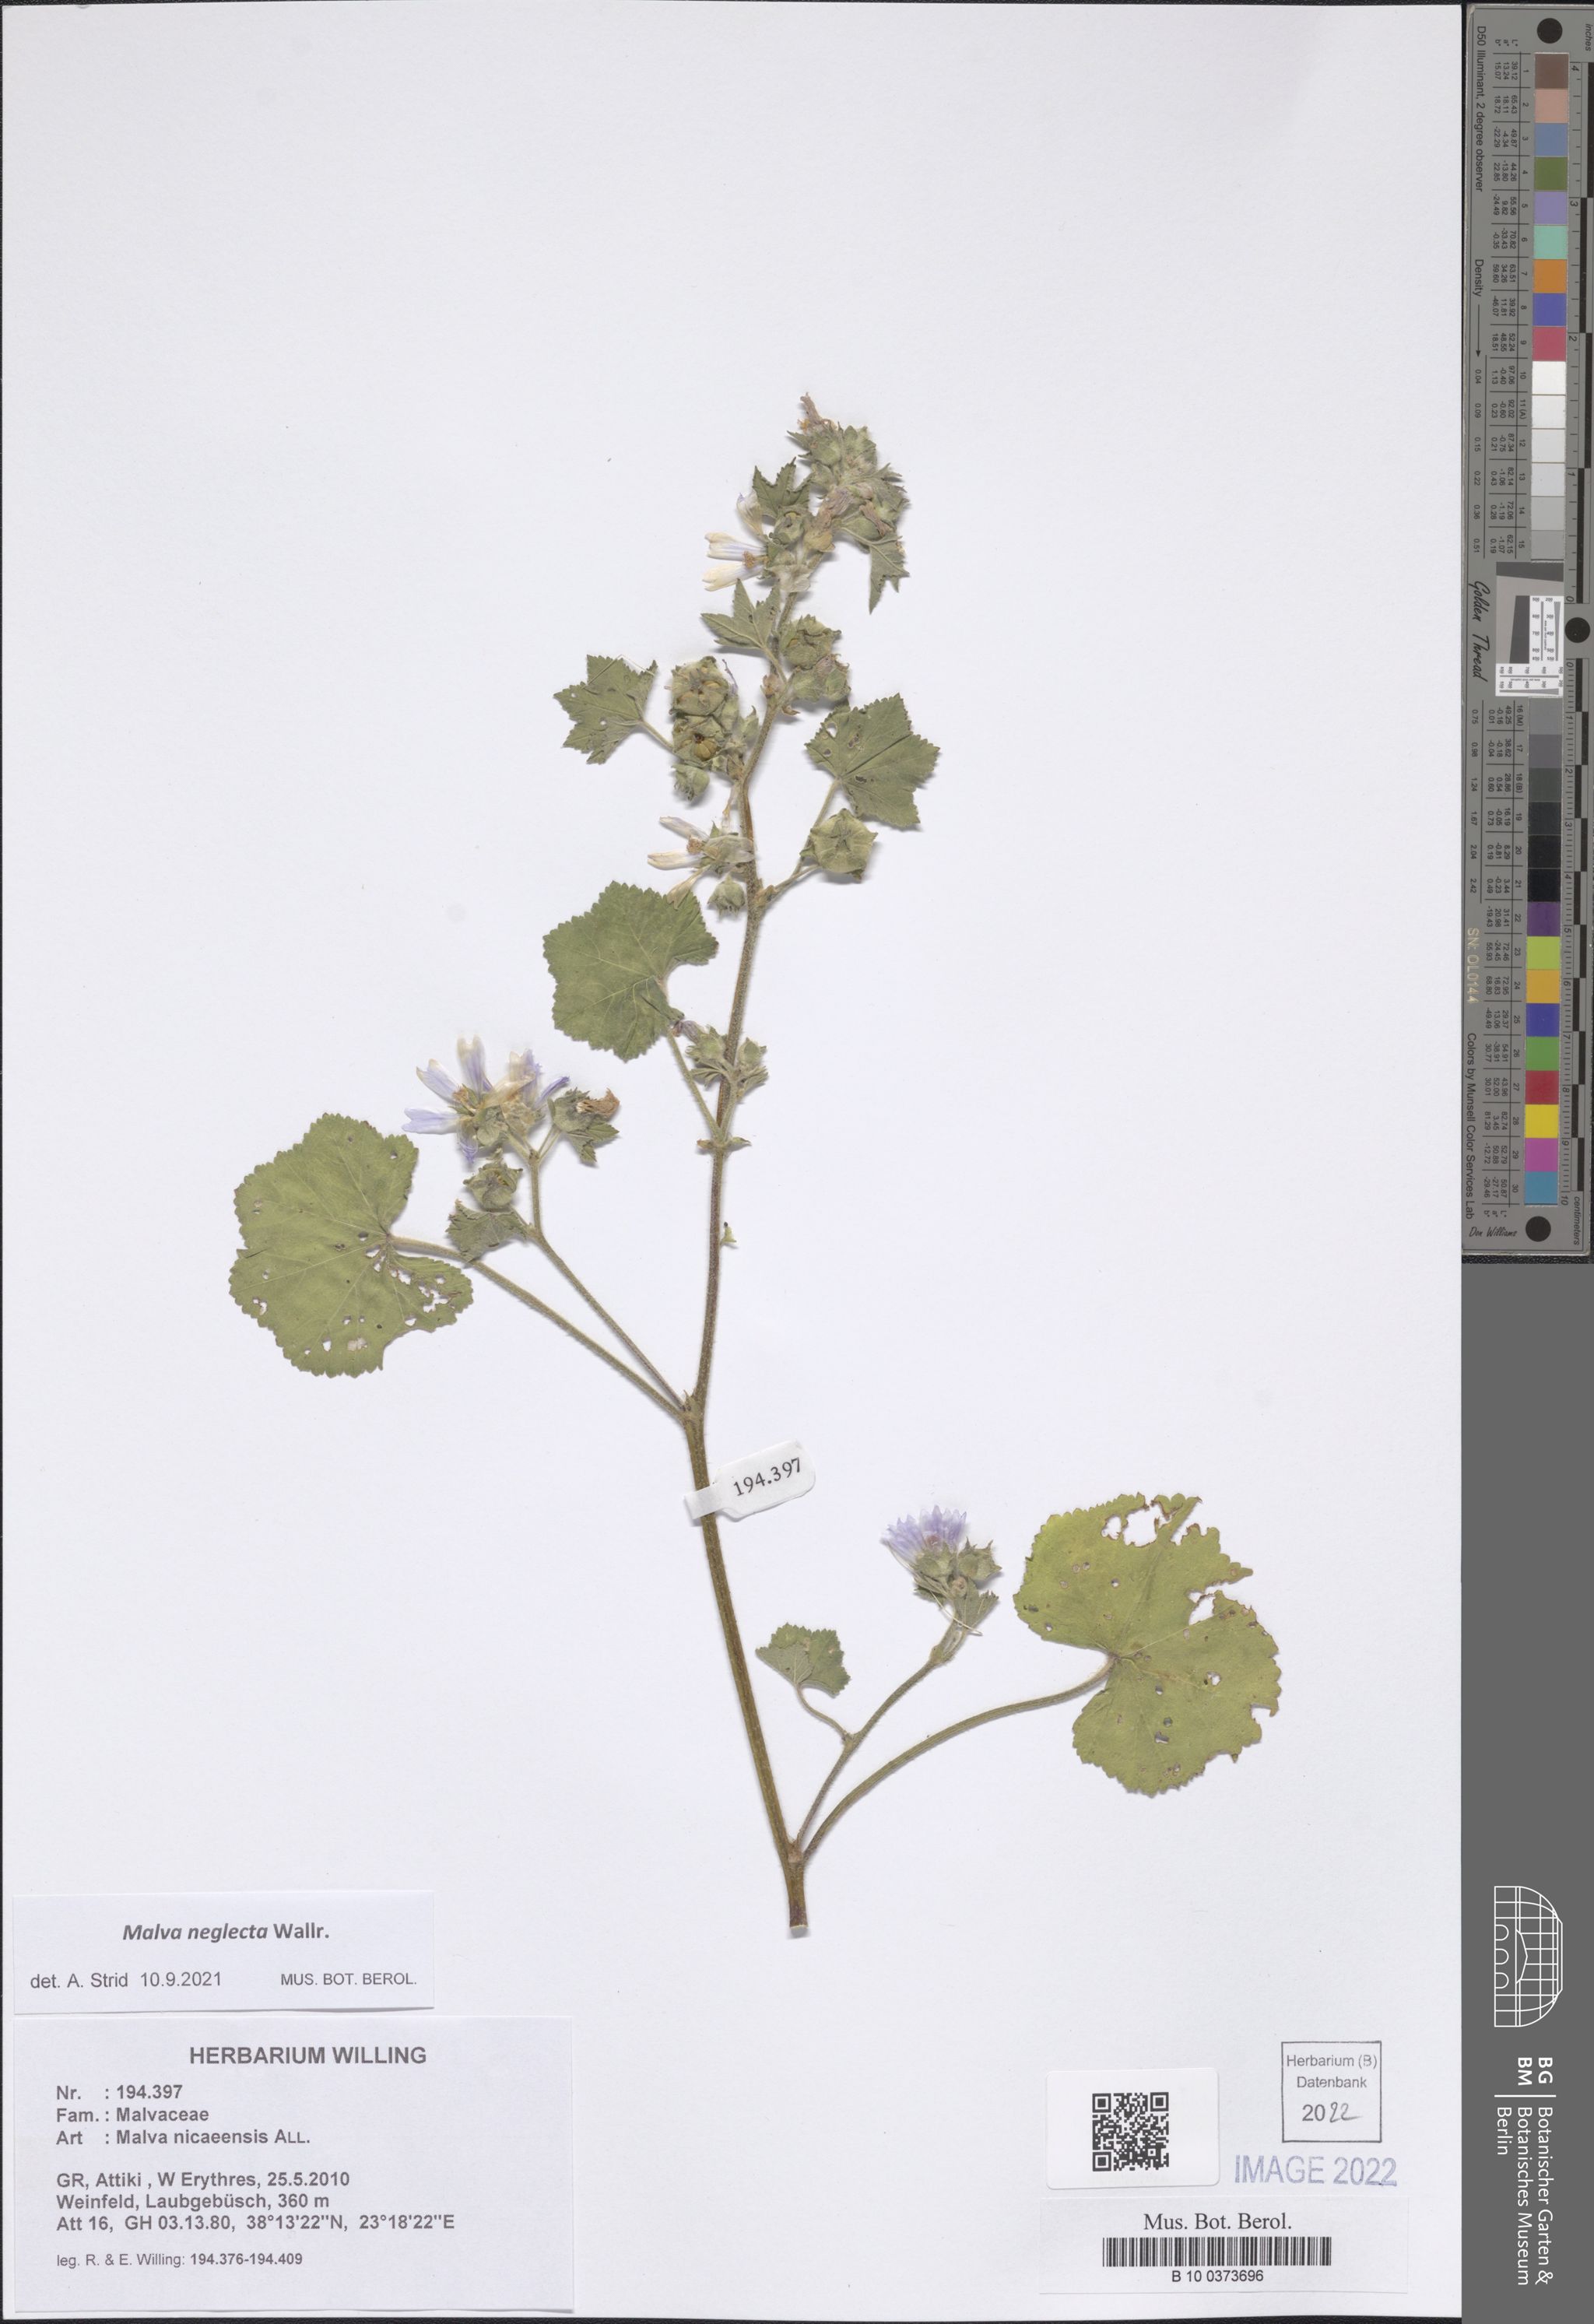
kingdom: Plantae
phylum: Tracheophyta
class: Magnoliopsida
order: Malvales
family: Malvaceae
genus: Malva
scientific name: Malva neglecta
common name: Common mallow
